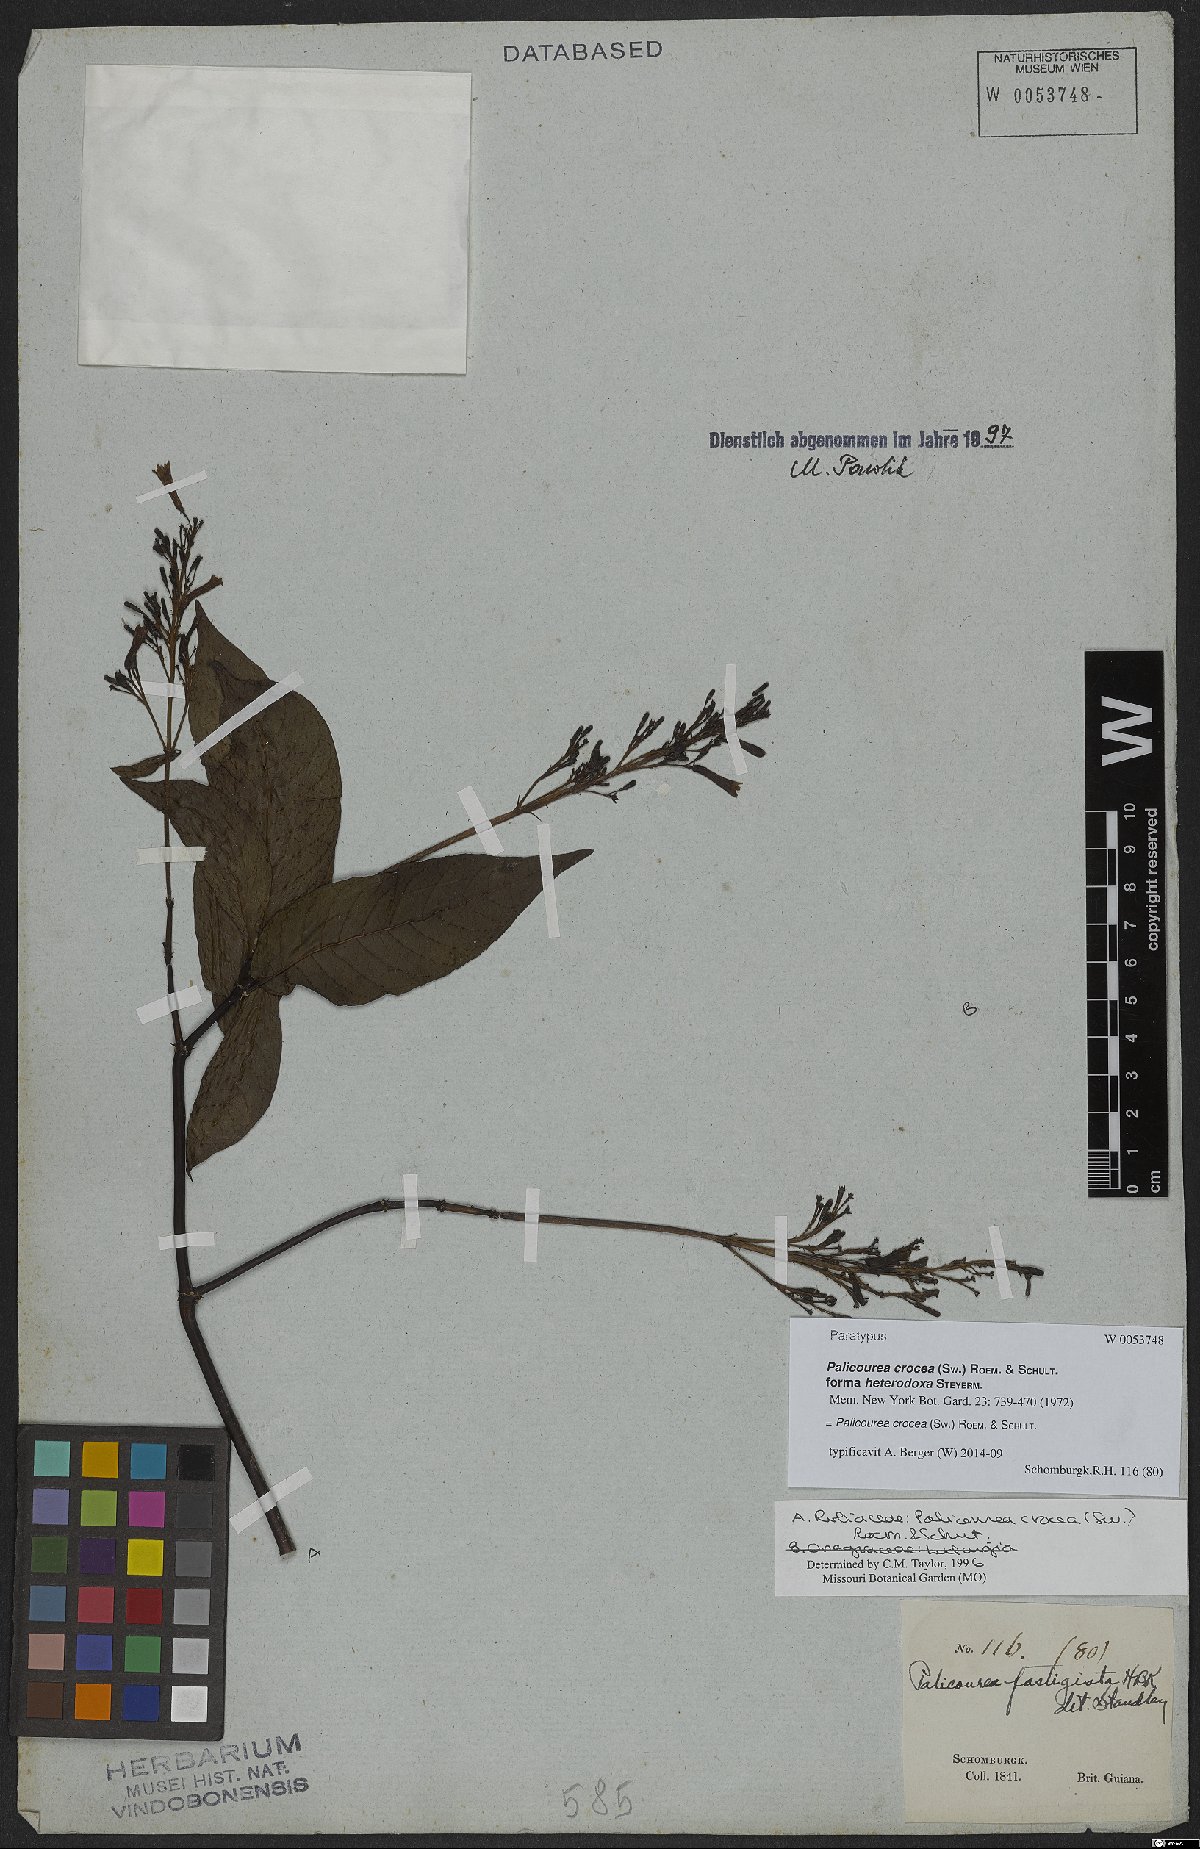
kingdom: Plantae
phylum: Tracheophyta
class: Magnoliopsida
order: Gentianales
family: Rubiaceae
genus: Palicourea
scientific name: Palicourea crocea
